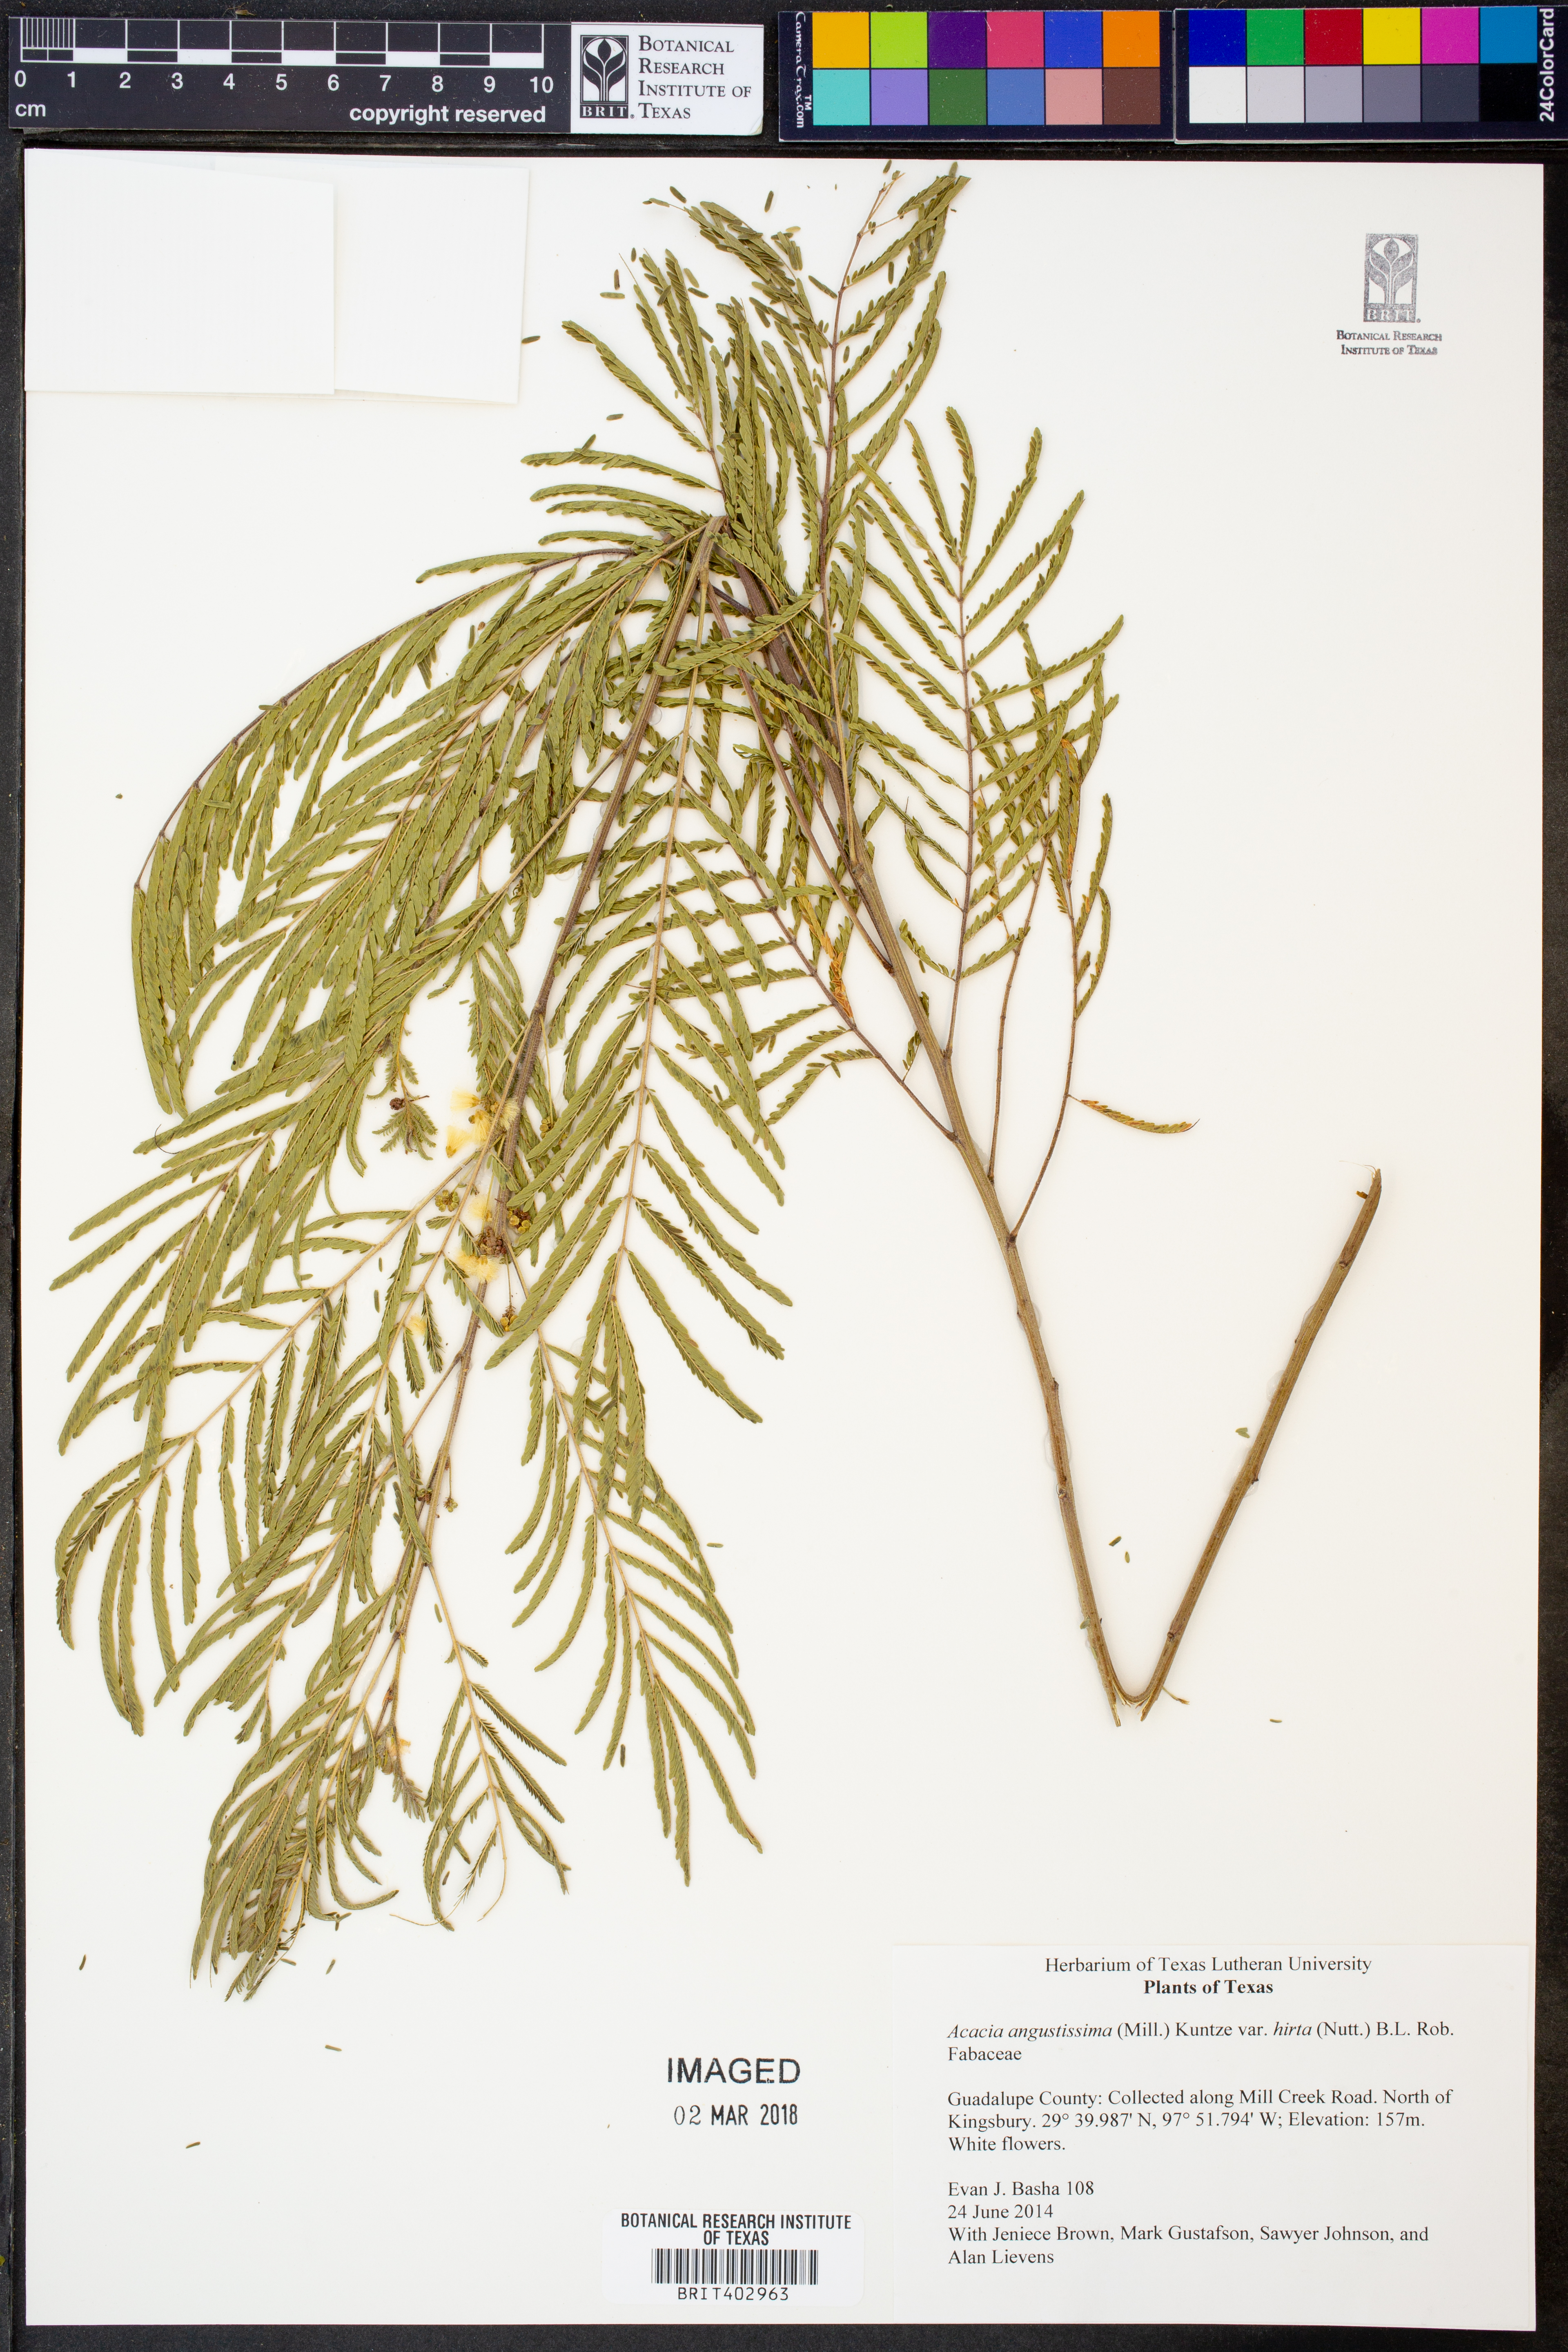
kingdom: Plantae
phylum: Tracheophyta
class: Magnoliopsida
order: Fabales
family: Fabaceae
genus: Acaciella
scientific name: Acaciella angustissima
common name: Prairie acacia
